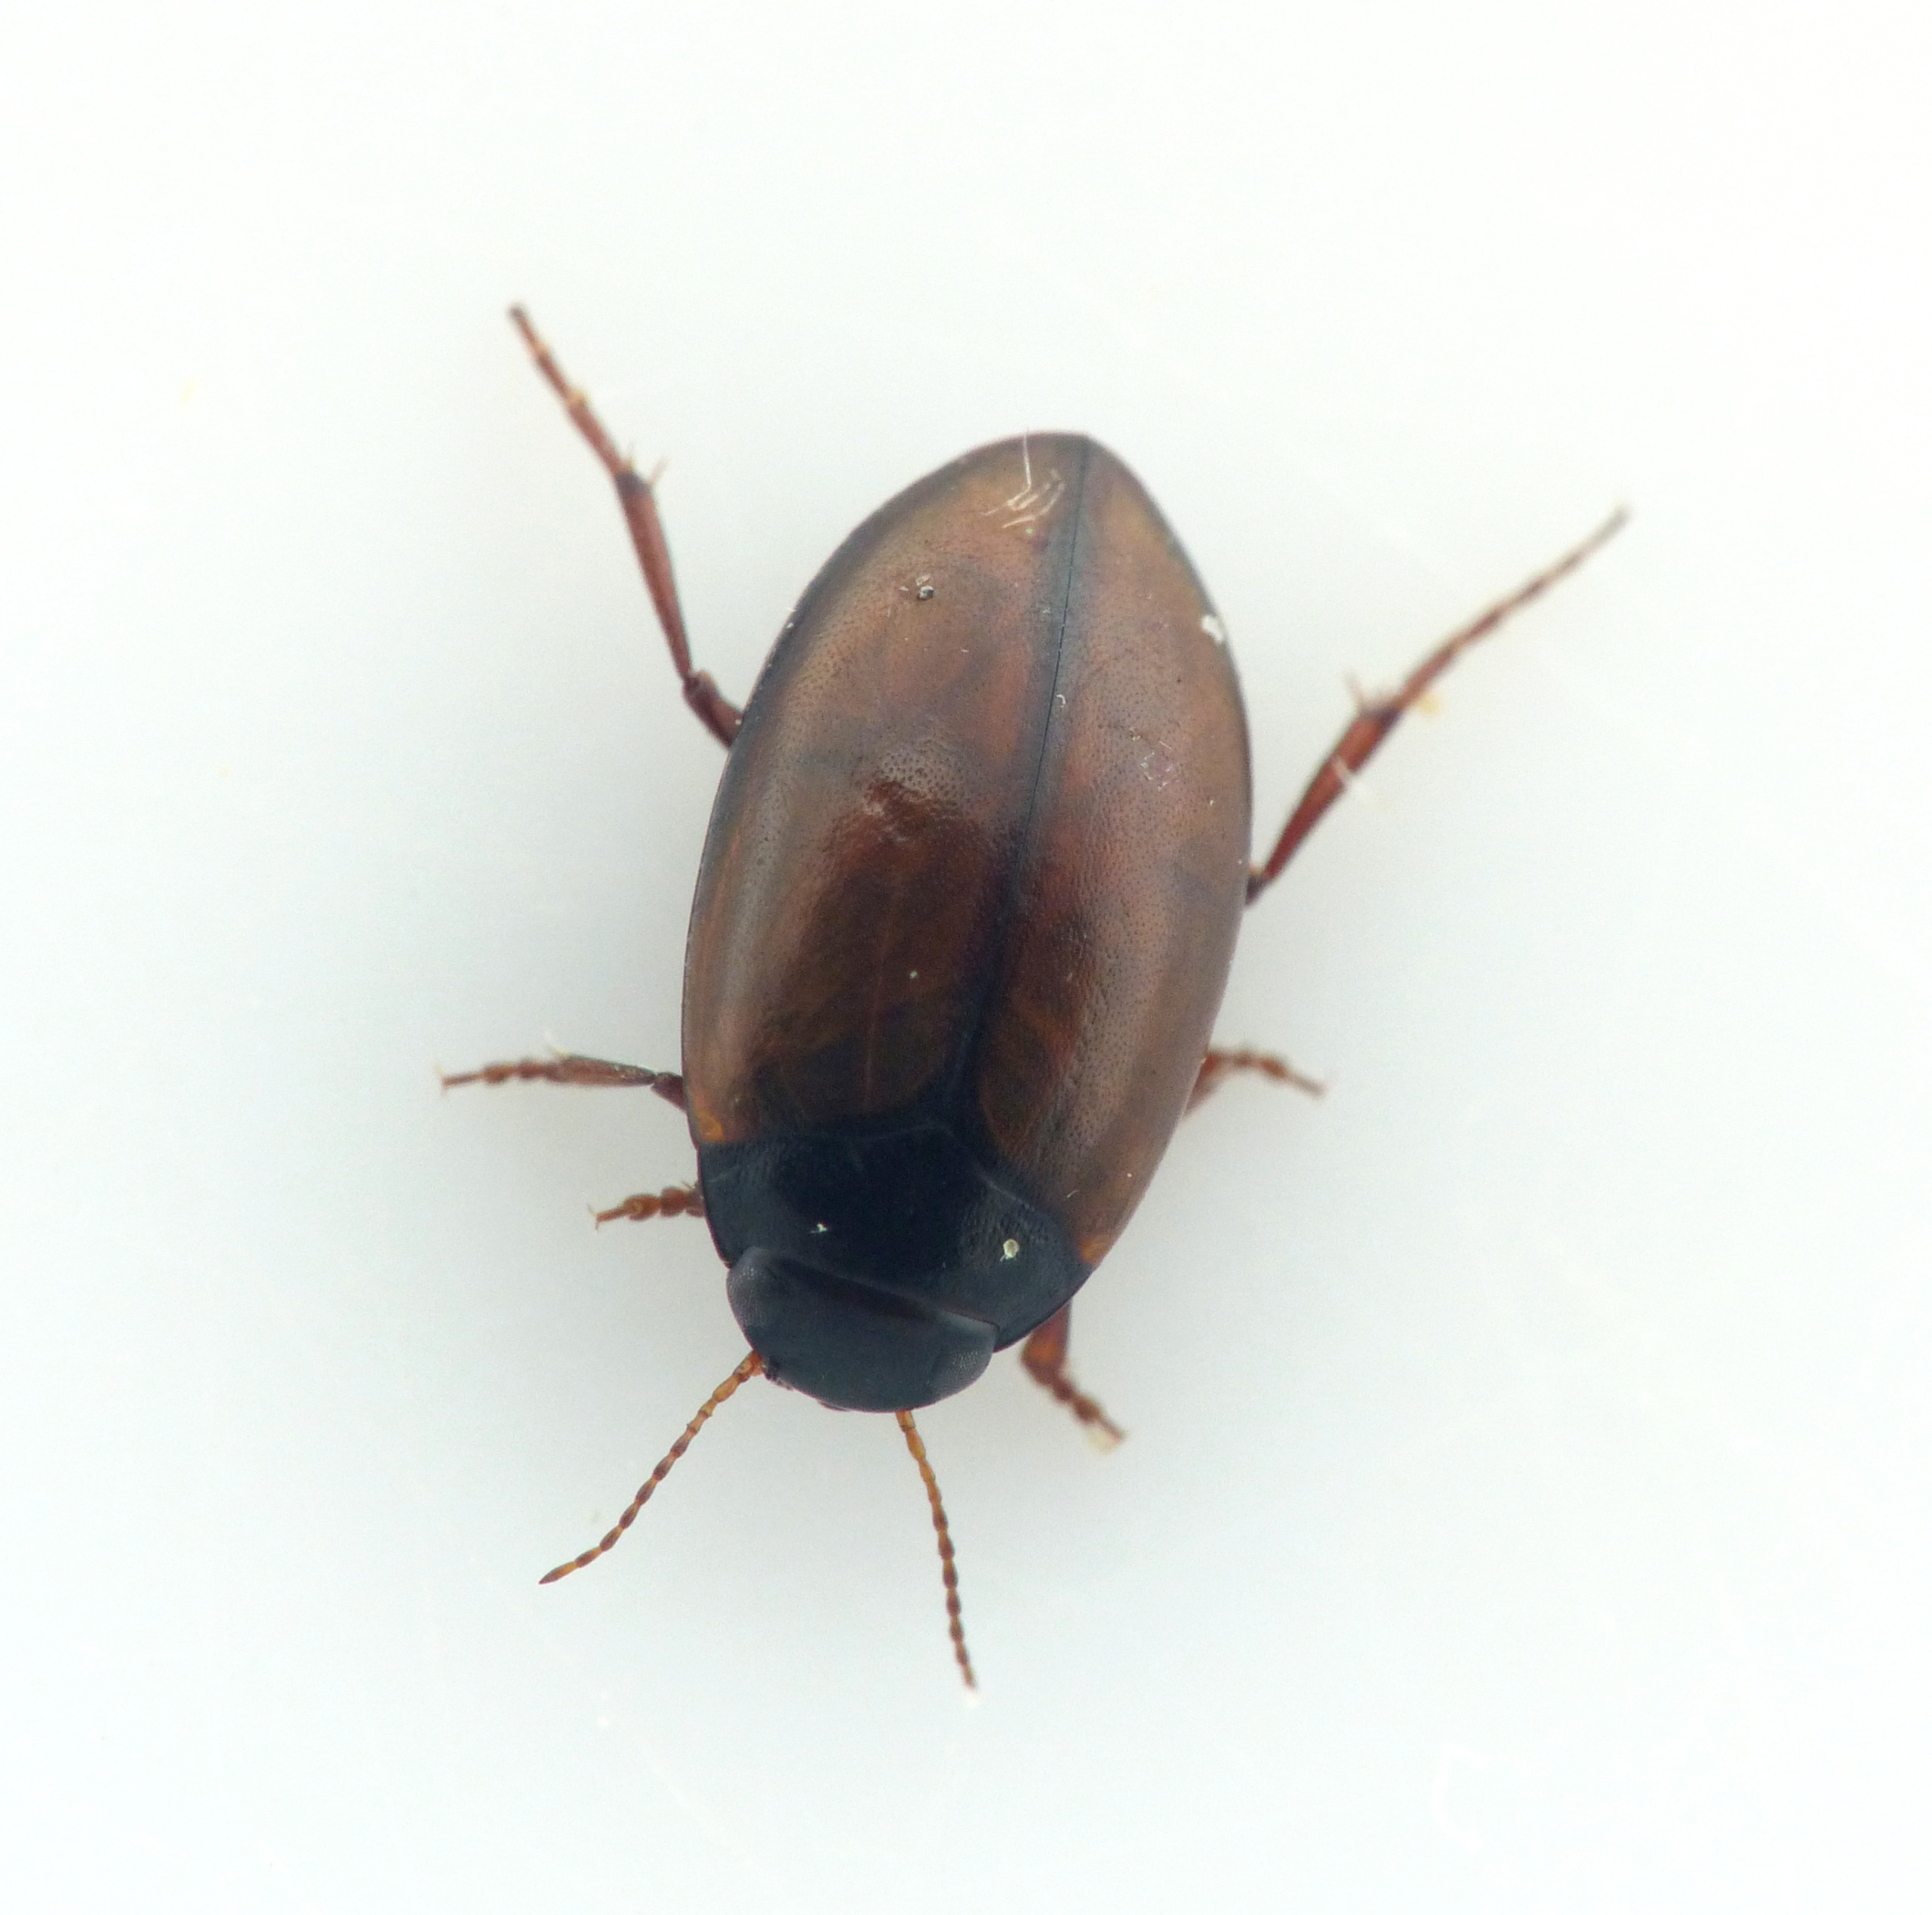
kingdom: Animalia
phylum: Arthropoda
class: Insecta
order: Coleoptera
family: Dytiscidae
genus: Hydroporus
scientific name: Hydroporus planus
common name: Fladtrykt vandkalv
